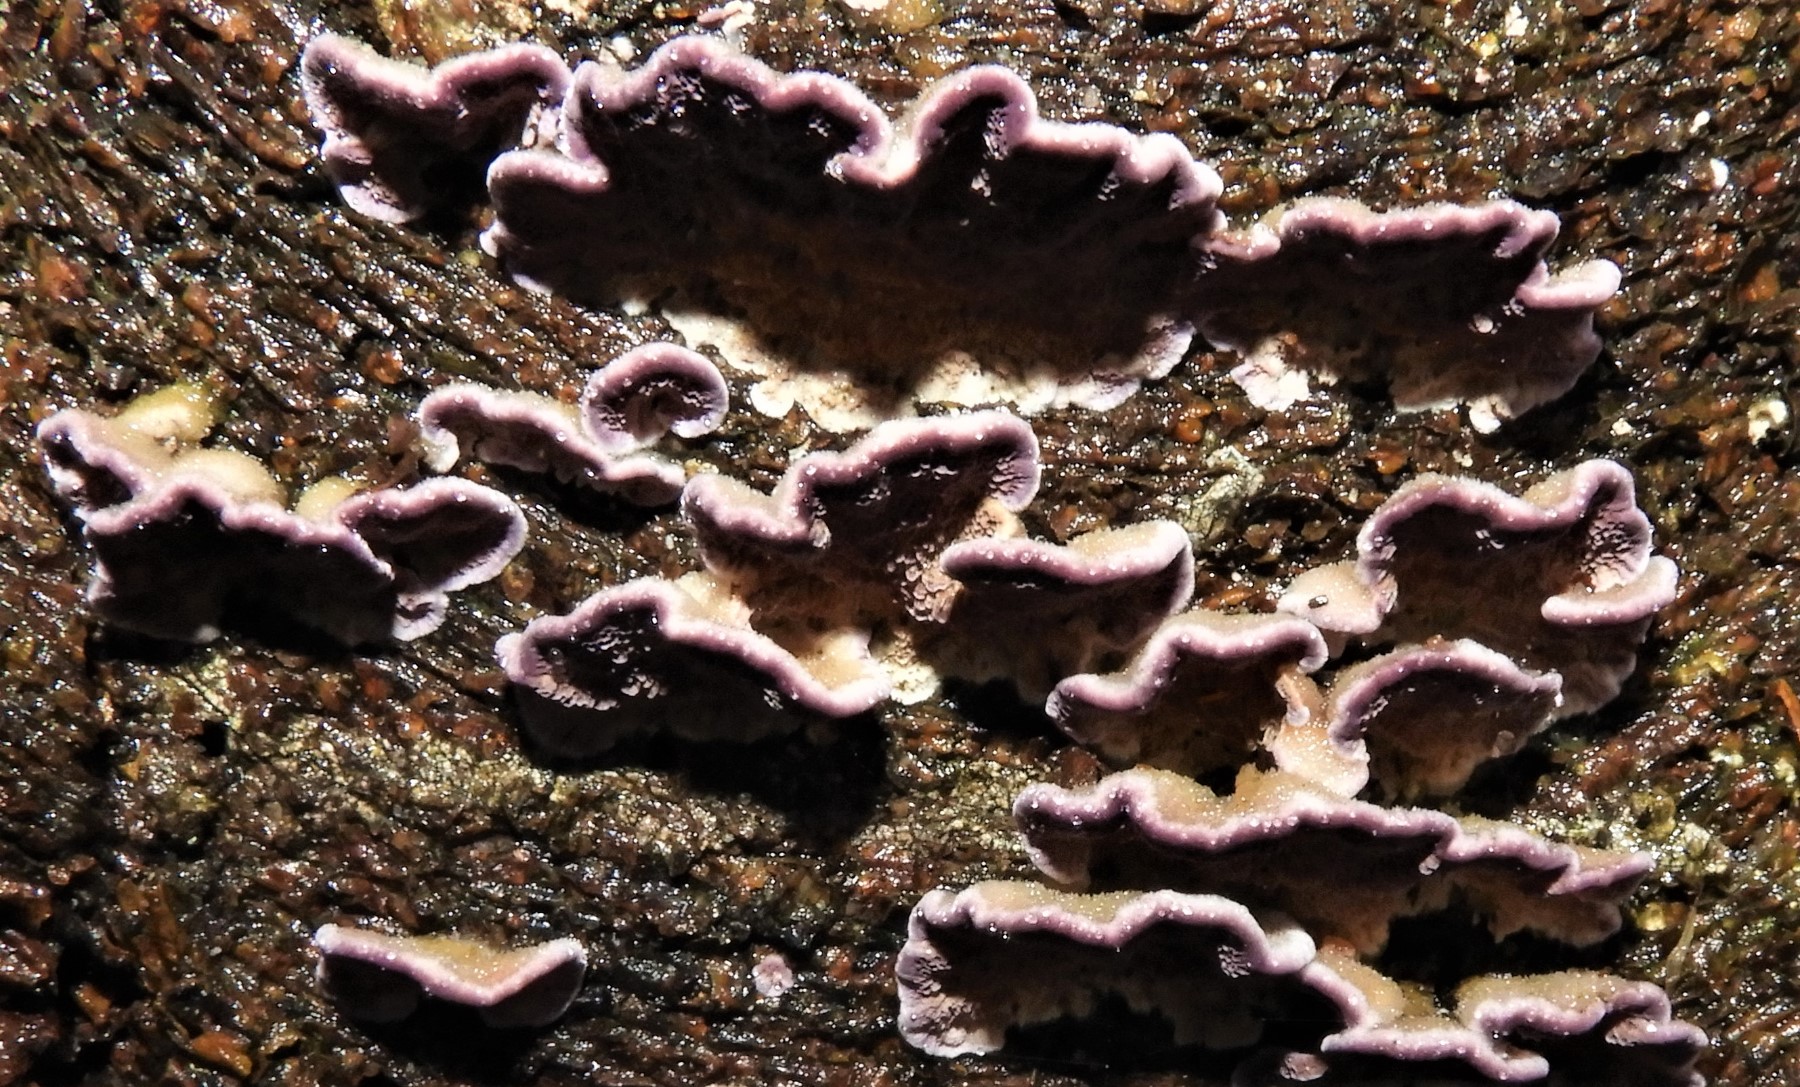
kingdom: Fungi
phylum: Basidiomycota
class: Agaricomycetes
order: Hymenochaetales
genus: Trichaptum
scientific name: Trichaptum fuscoviolaceum
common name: tandet violporesvamp
